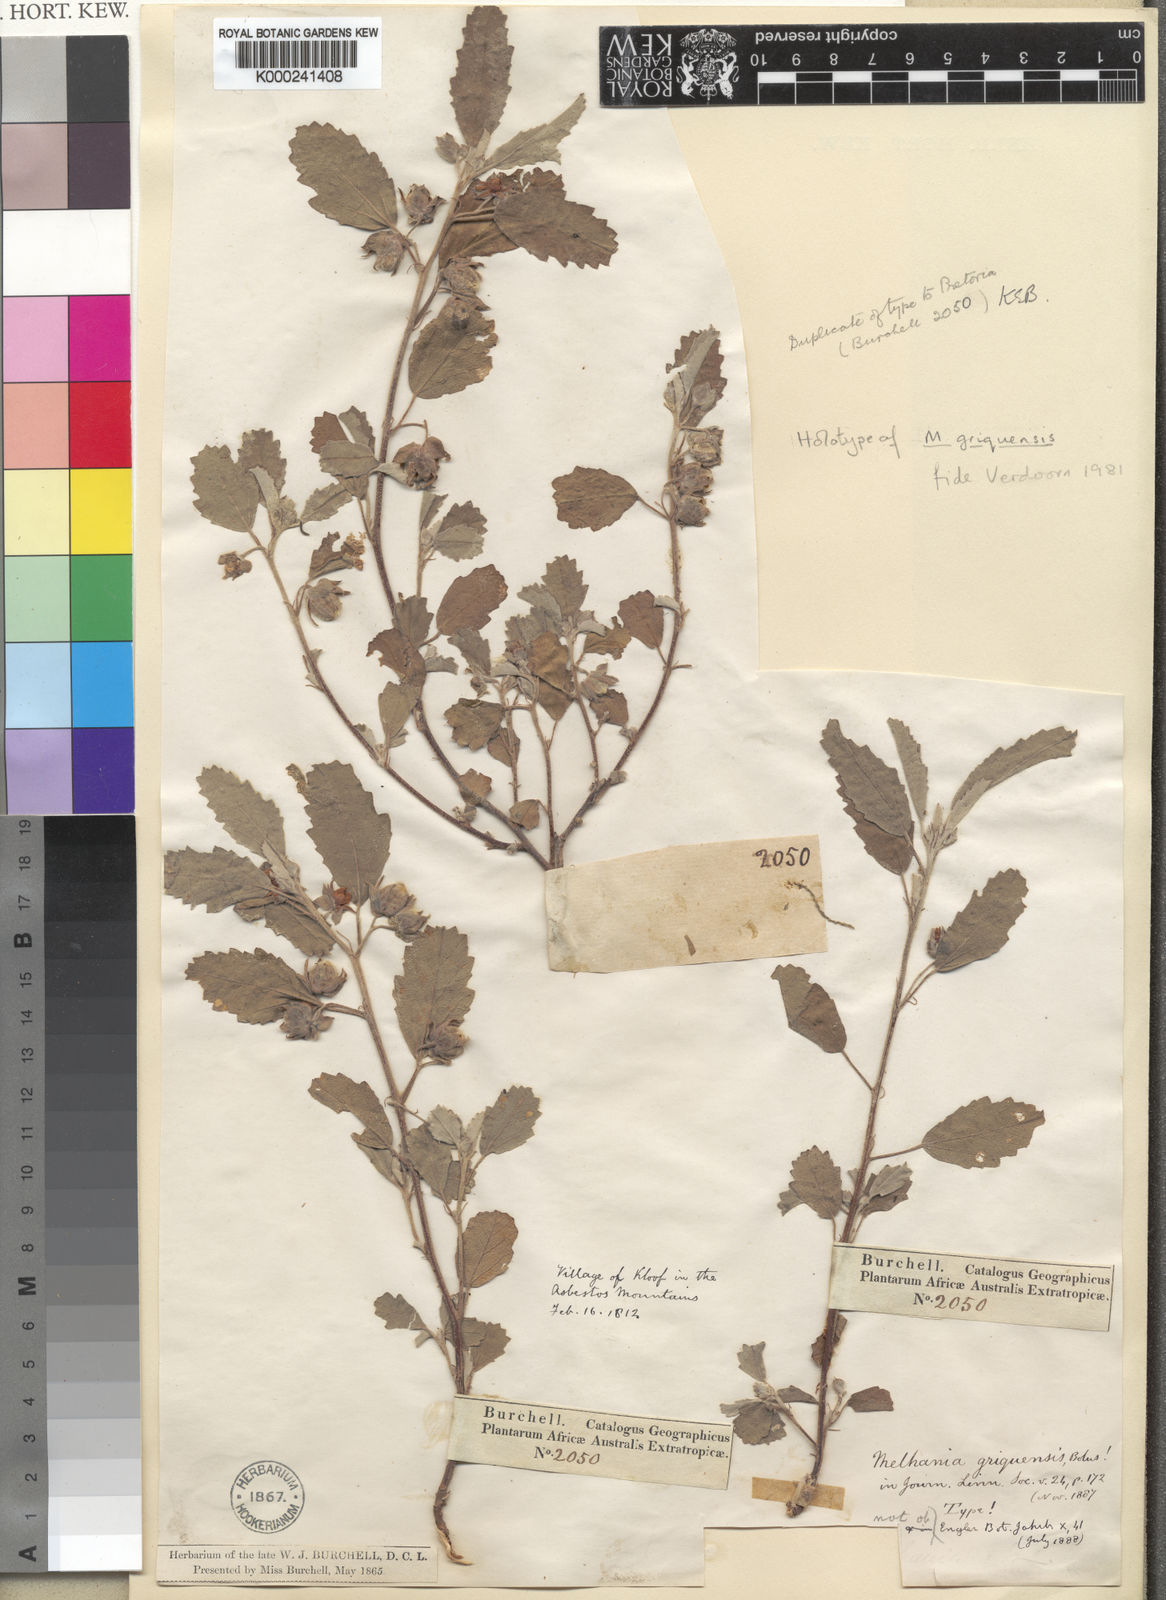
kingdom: Plantae
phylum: Tracheophyta
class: Magnoliopsida
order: Malvales
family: Malvaceae
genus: Melhania
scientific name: Melhania rehmannii
